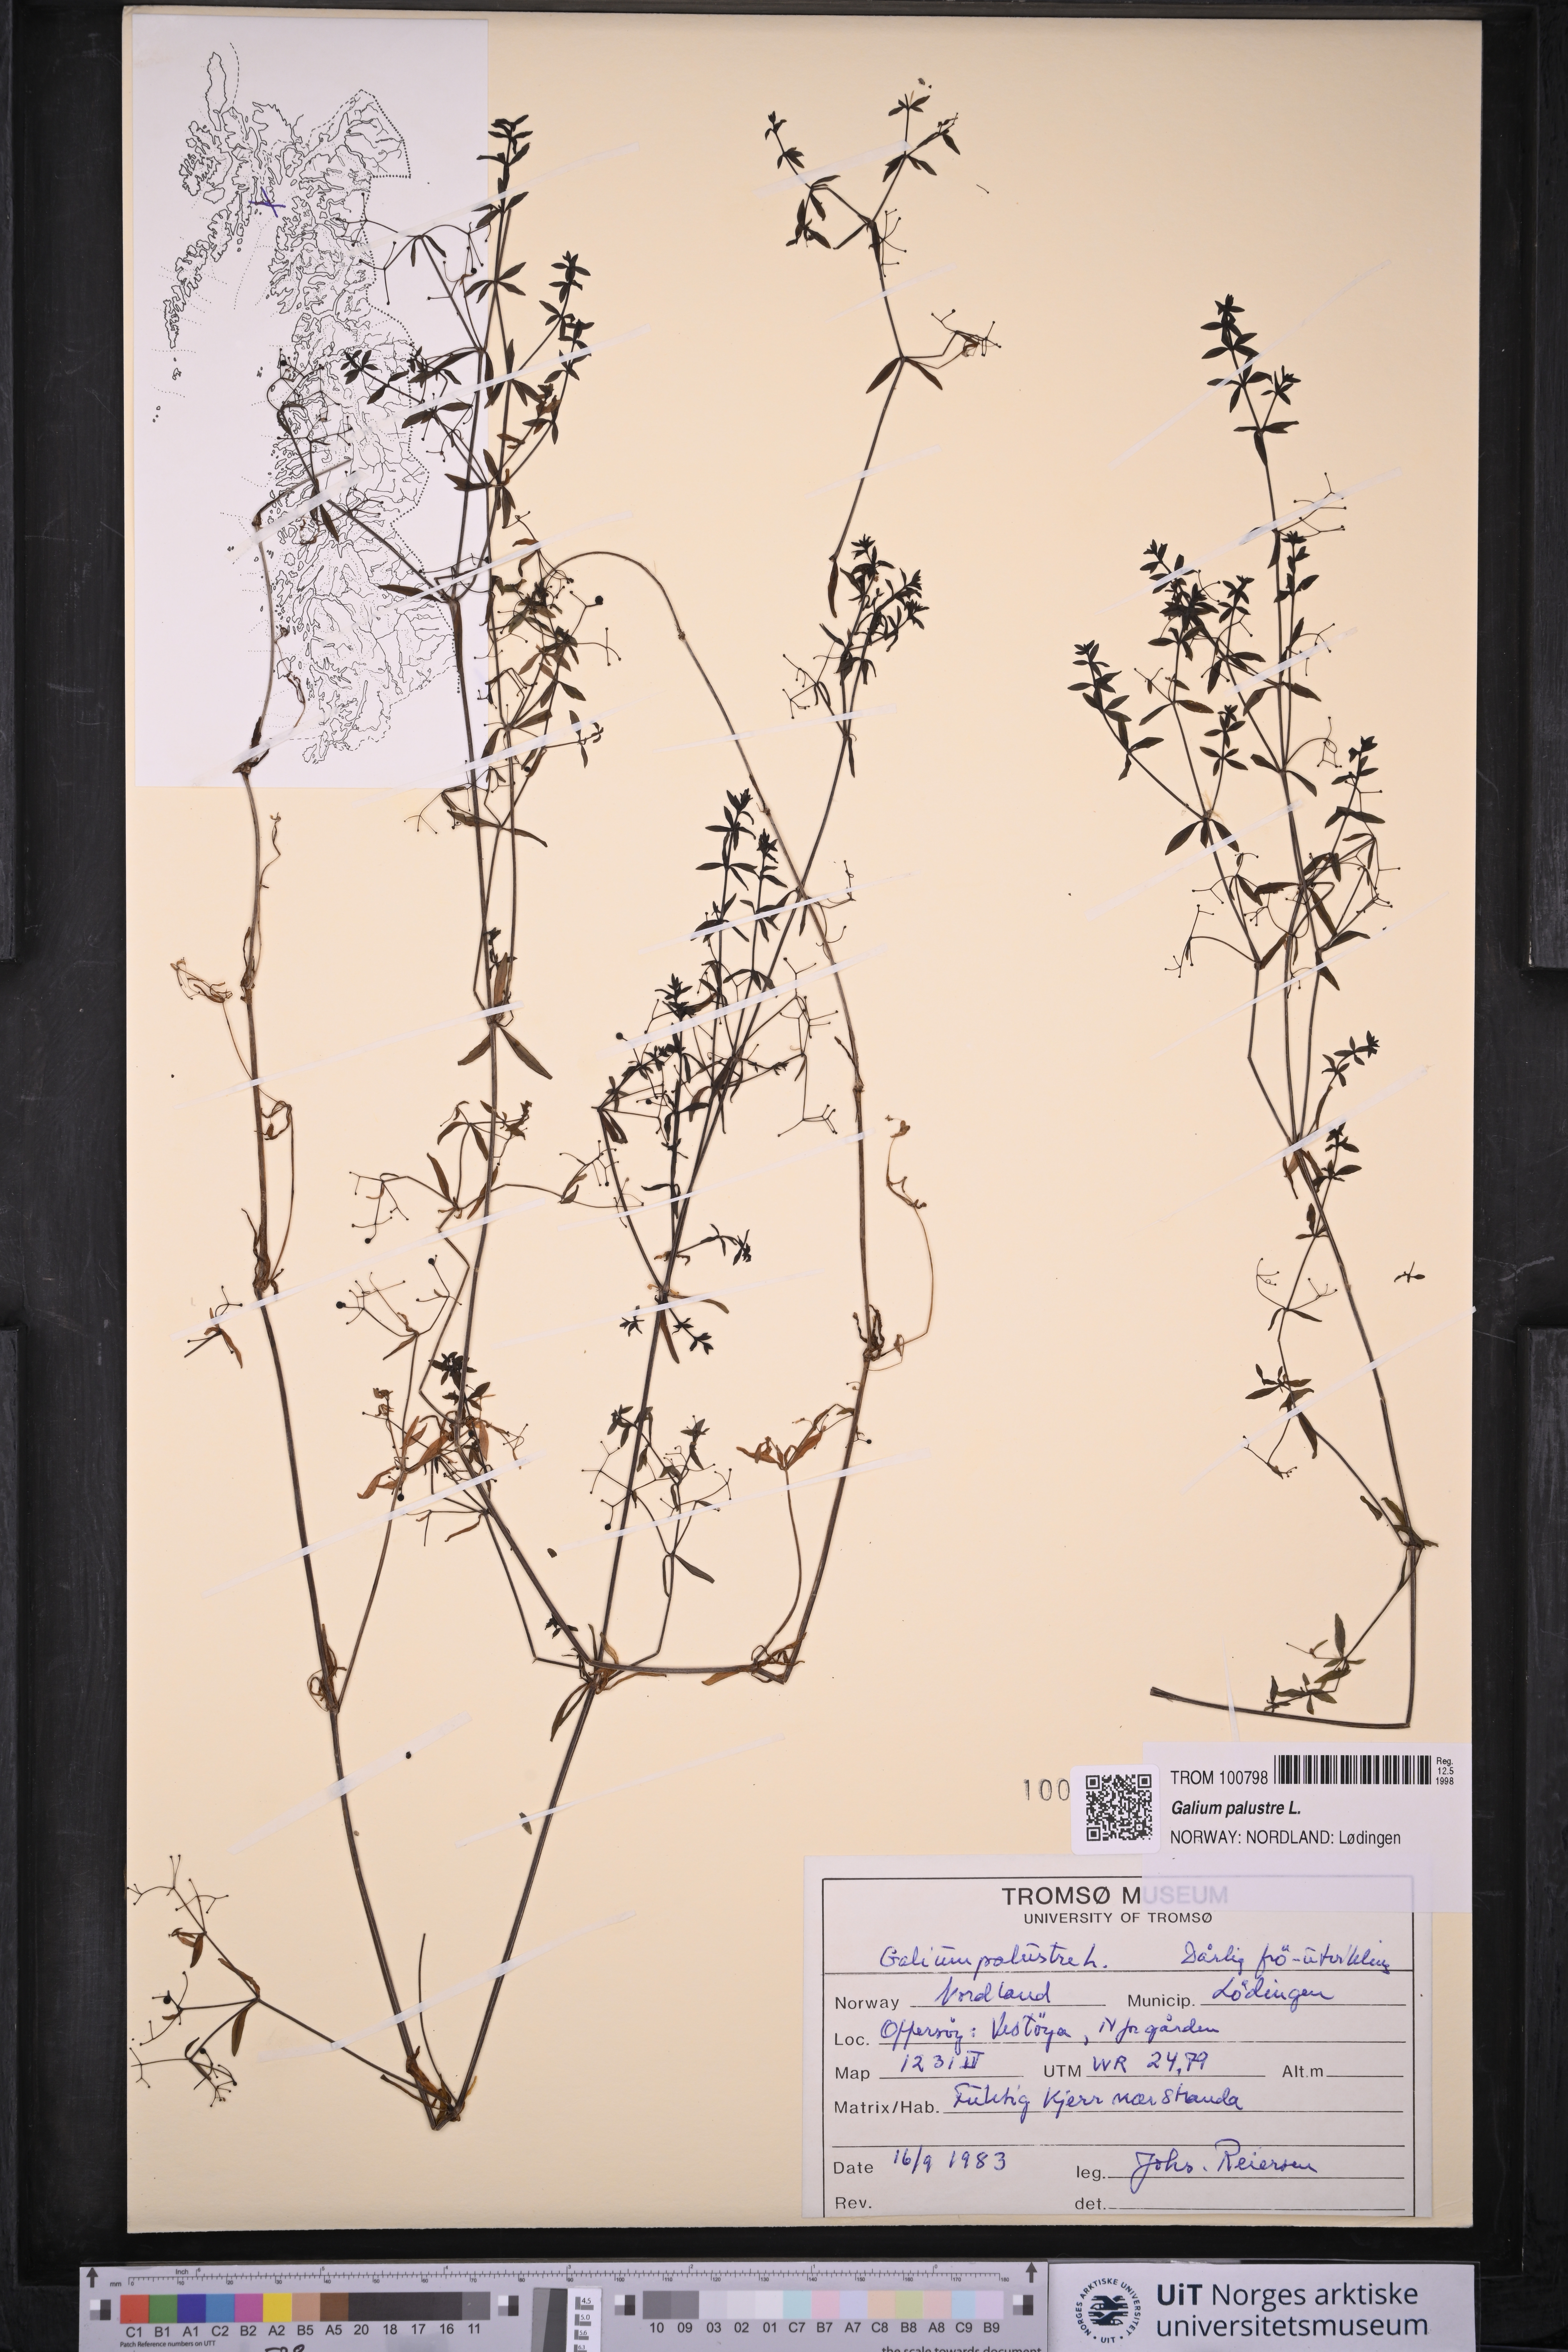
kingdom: Plantae
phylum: Tracheophyta
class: Magnoliopsida
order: Gentianales
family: Rubiaceae
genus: Galium
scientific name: Galium palustre
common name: Common marsh-bedstraw
